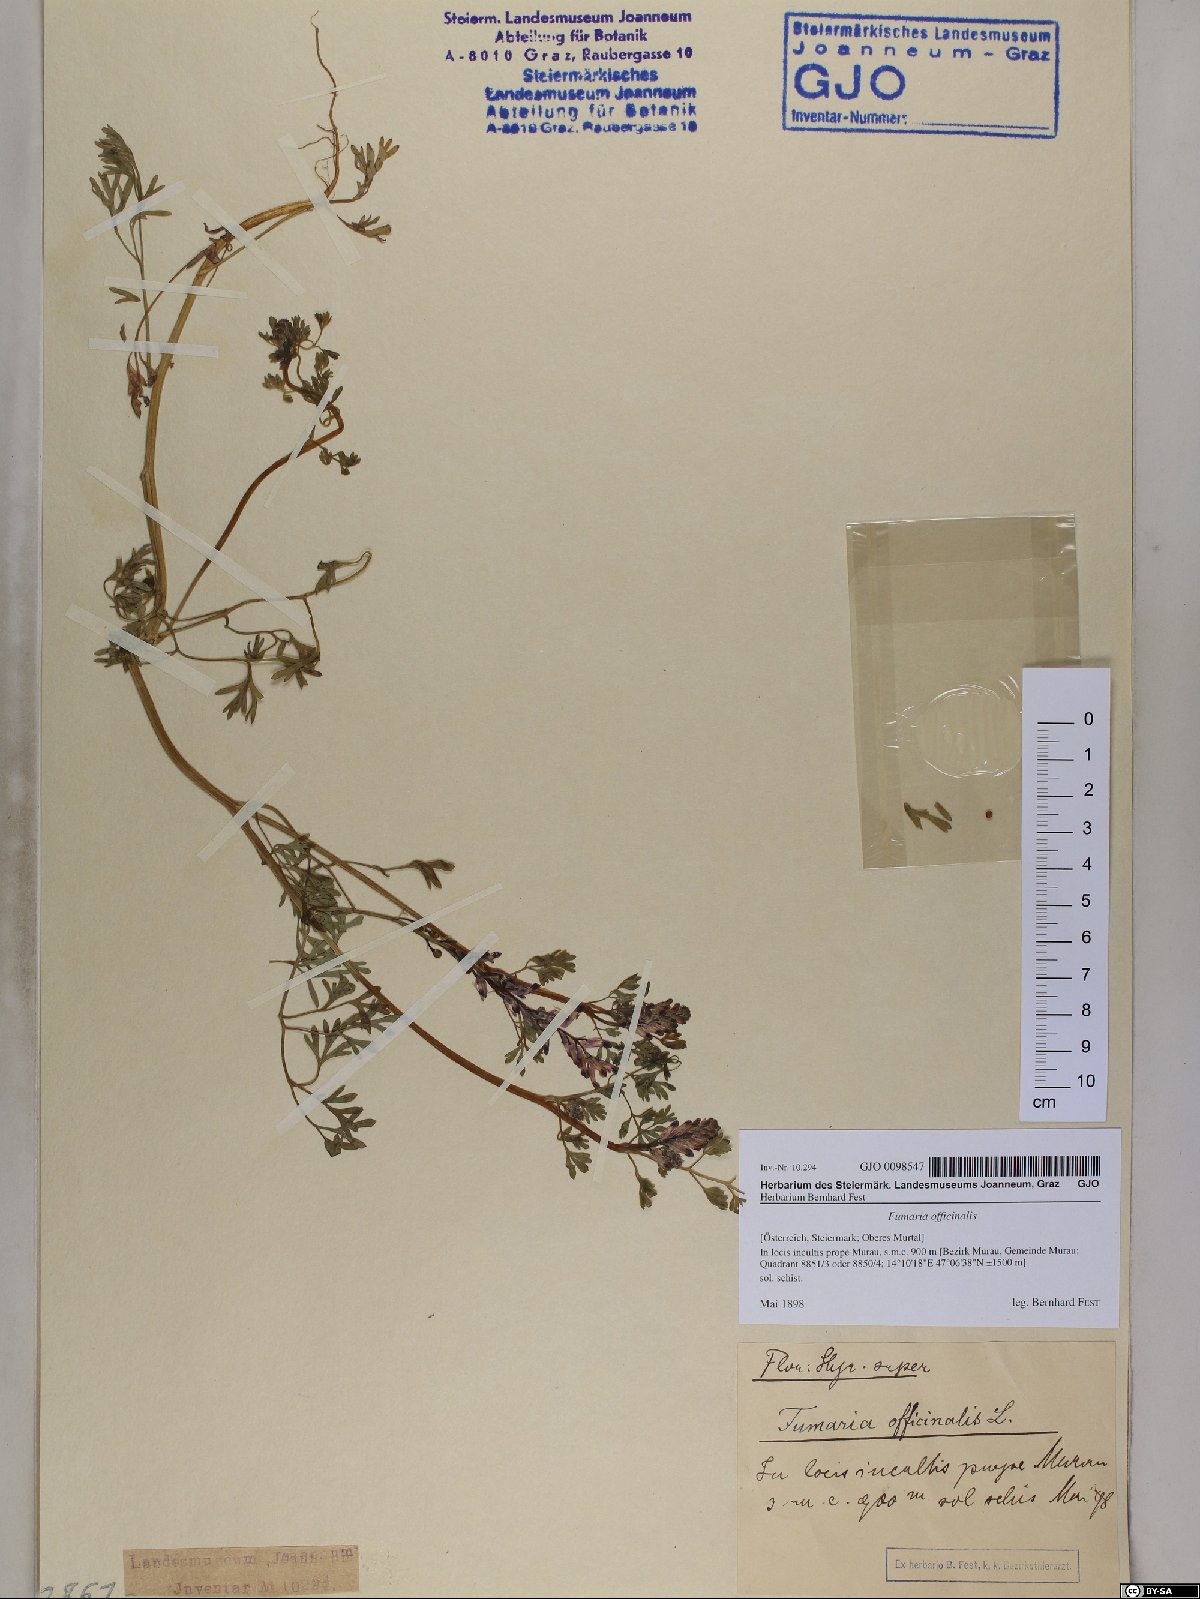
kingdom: Plantae
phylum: Tracheophyta
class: Magnoliopsida
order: Ranunculales
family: Papaveraceae
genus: Fumaria
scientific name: Fumaria officinalis
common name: Common fumitory
